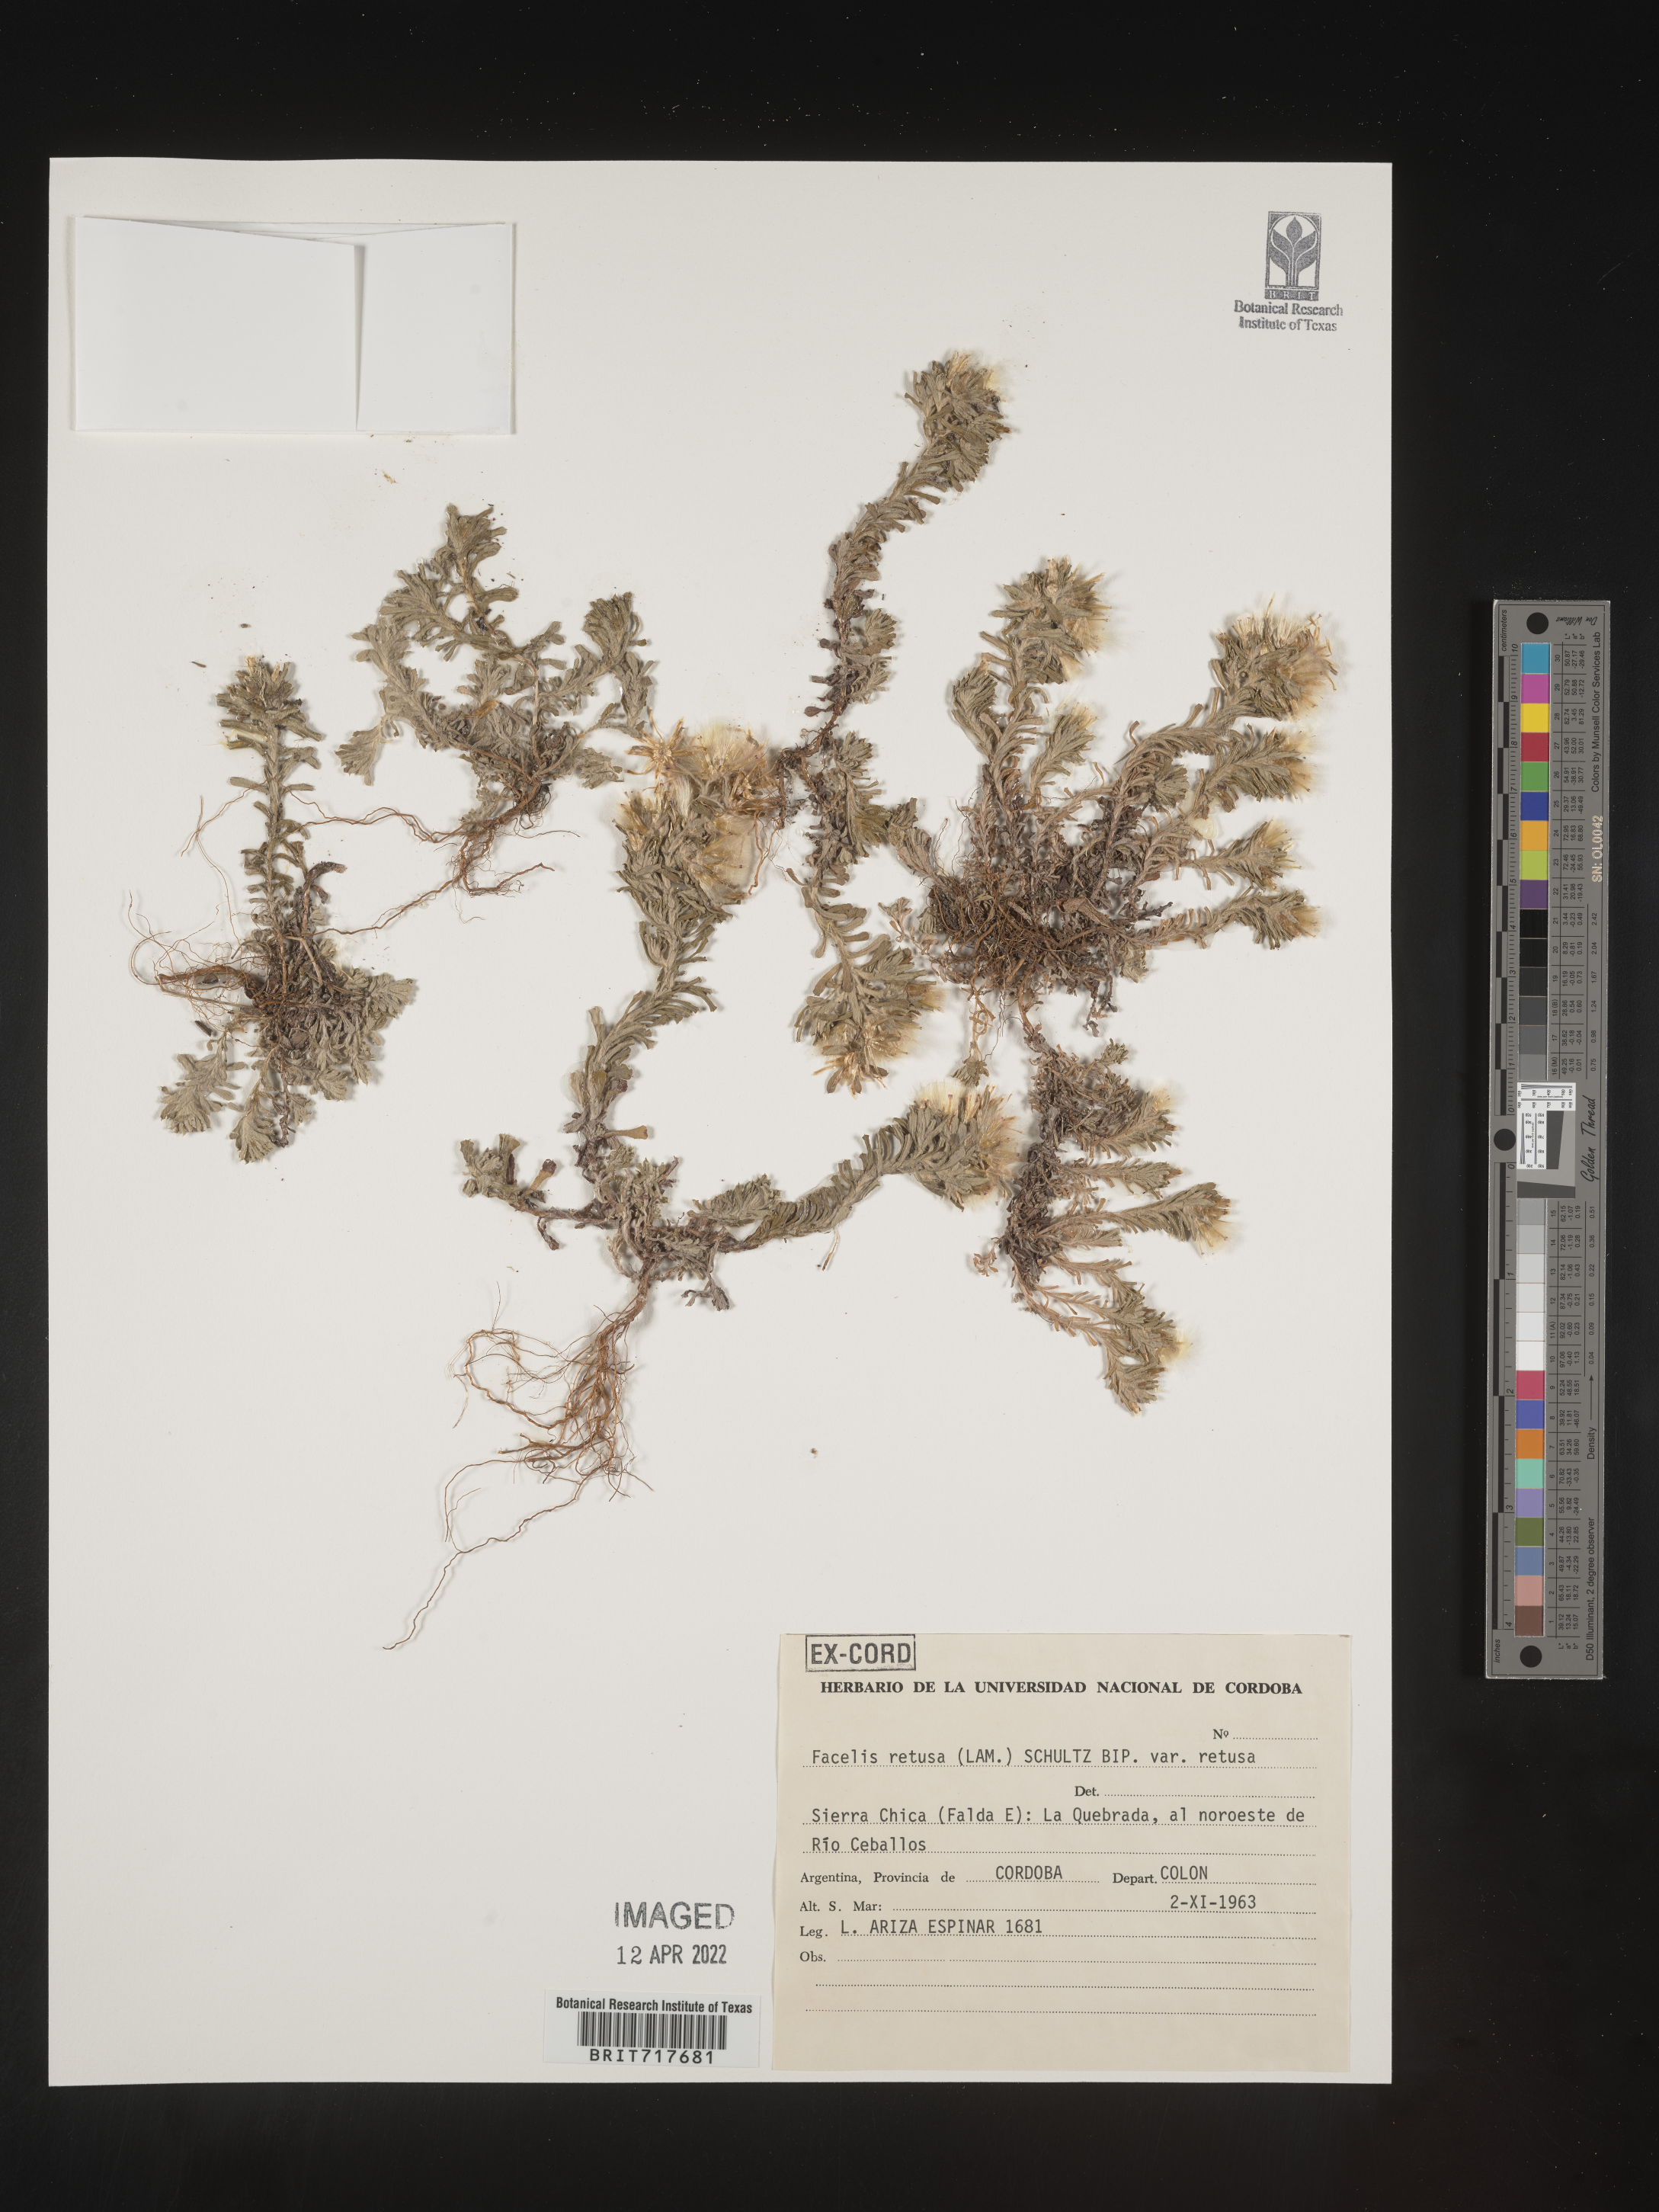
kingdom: Plantae
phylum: Tracheophyta
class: Magnoliopsida
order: Asterales
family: Asteraceae
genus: Facelis
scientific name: Facelis
